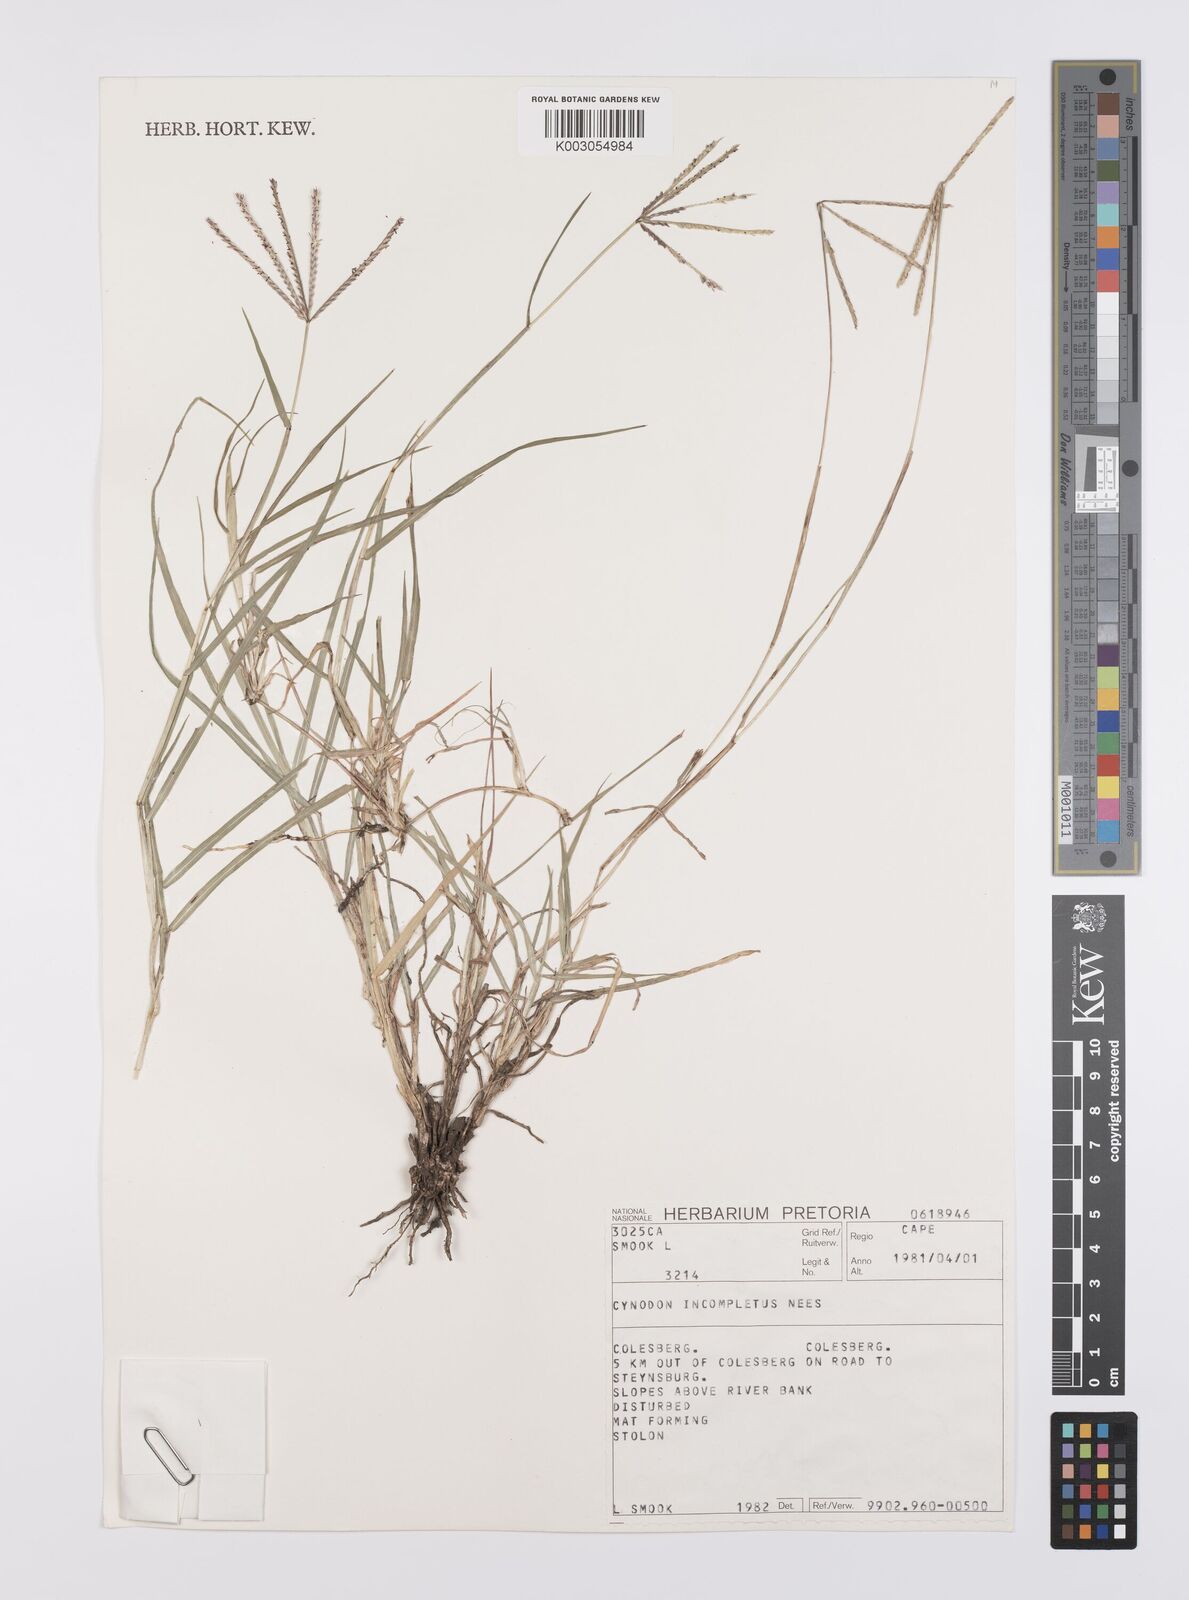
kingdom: Plantae
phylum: Tracheophyta
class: Liliopsida
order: Poales
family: Poaceae
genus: Cynodon
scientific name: Cynodon incompletus
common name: African bermuda-grass
